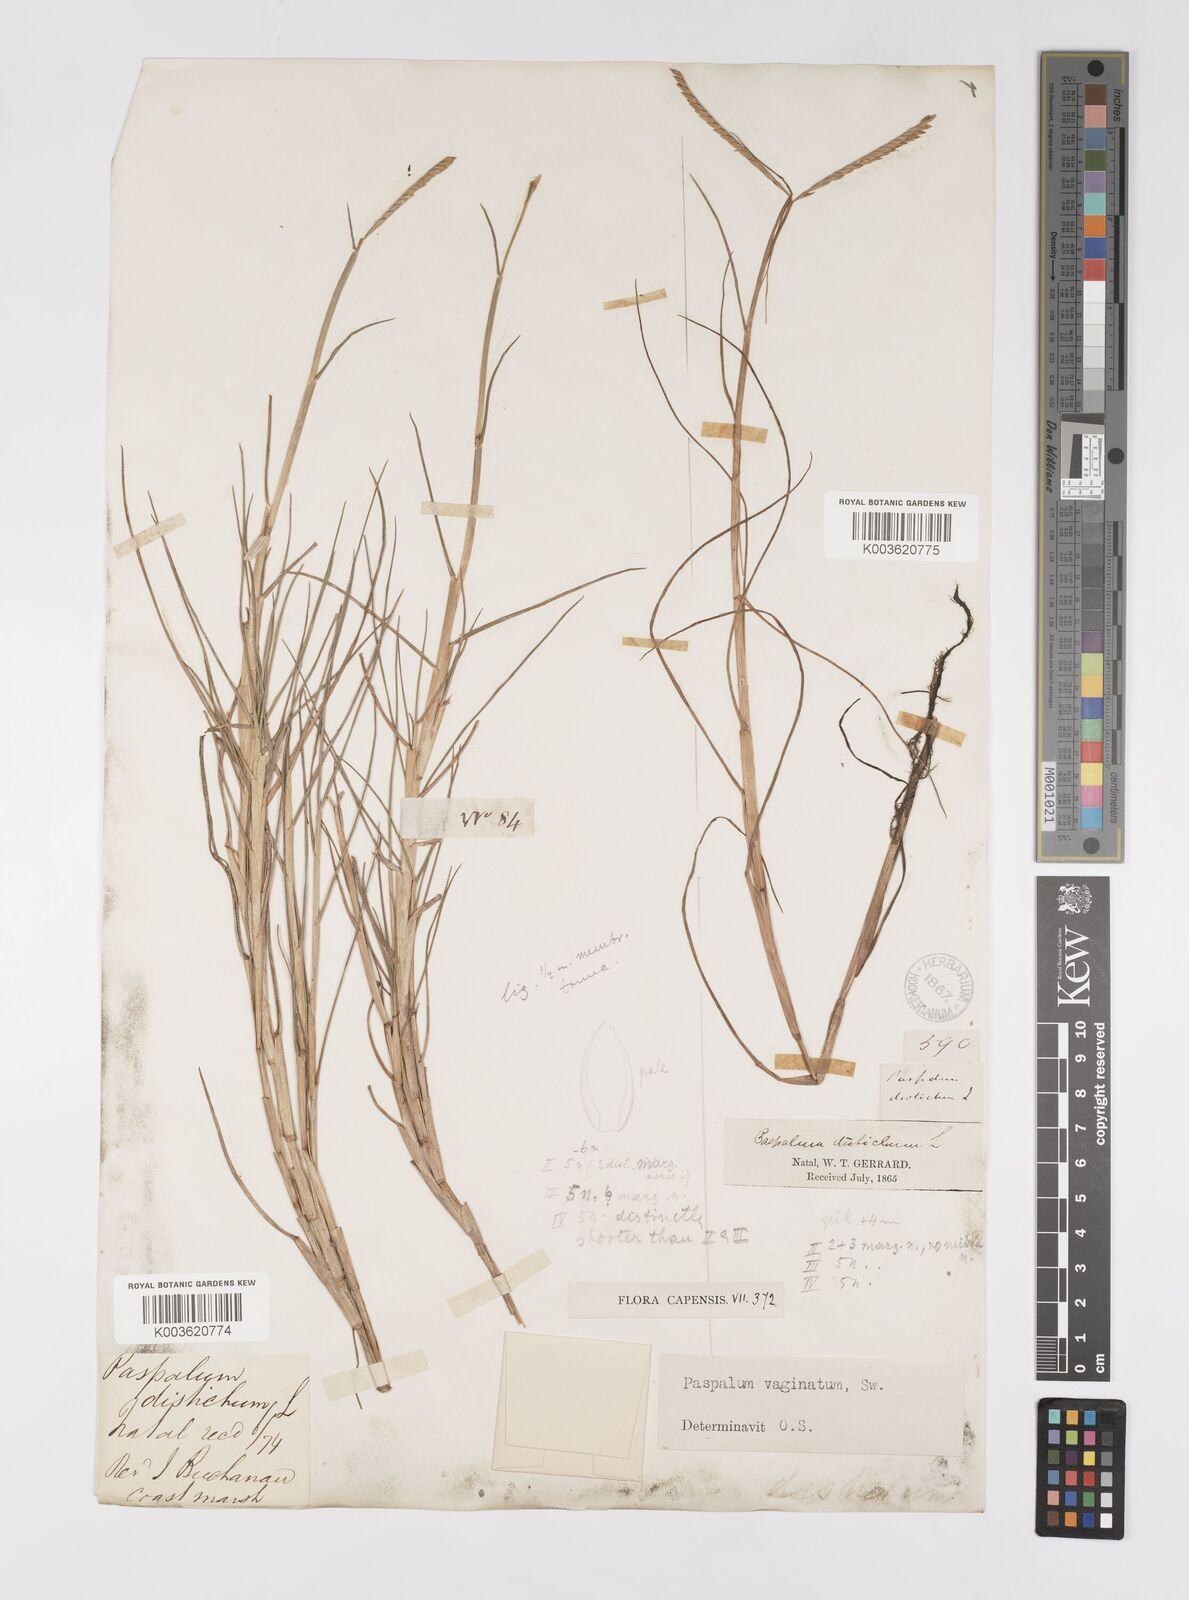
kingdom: Plantae
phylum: Tracheophyta
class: Liliopsida
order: Poales
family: Poaceae
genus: Paspalum
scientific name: Paspalum vaginatum
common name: Seashore paspalum
